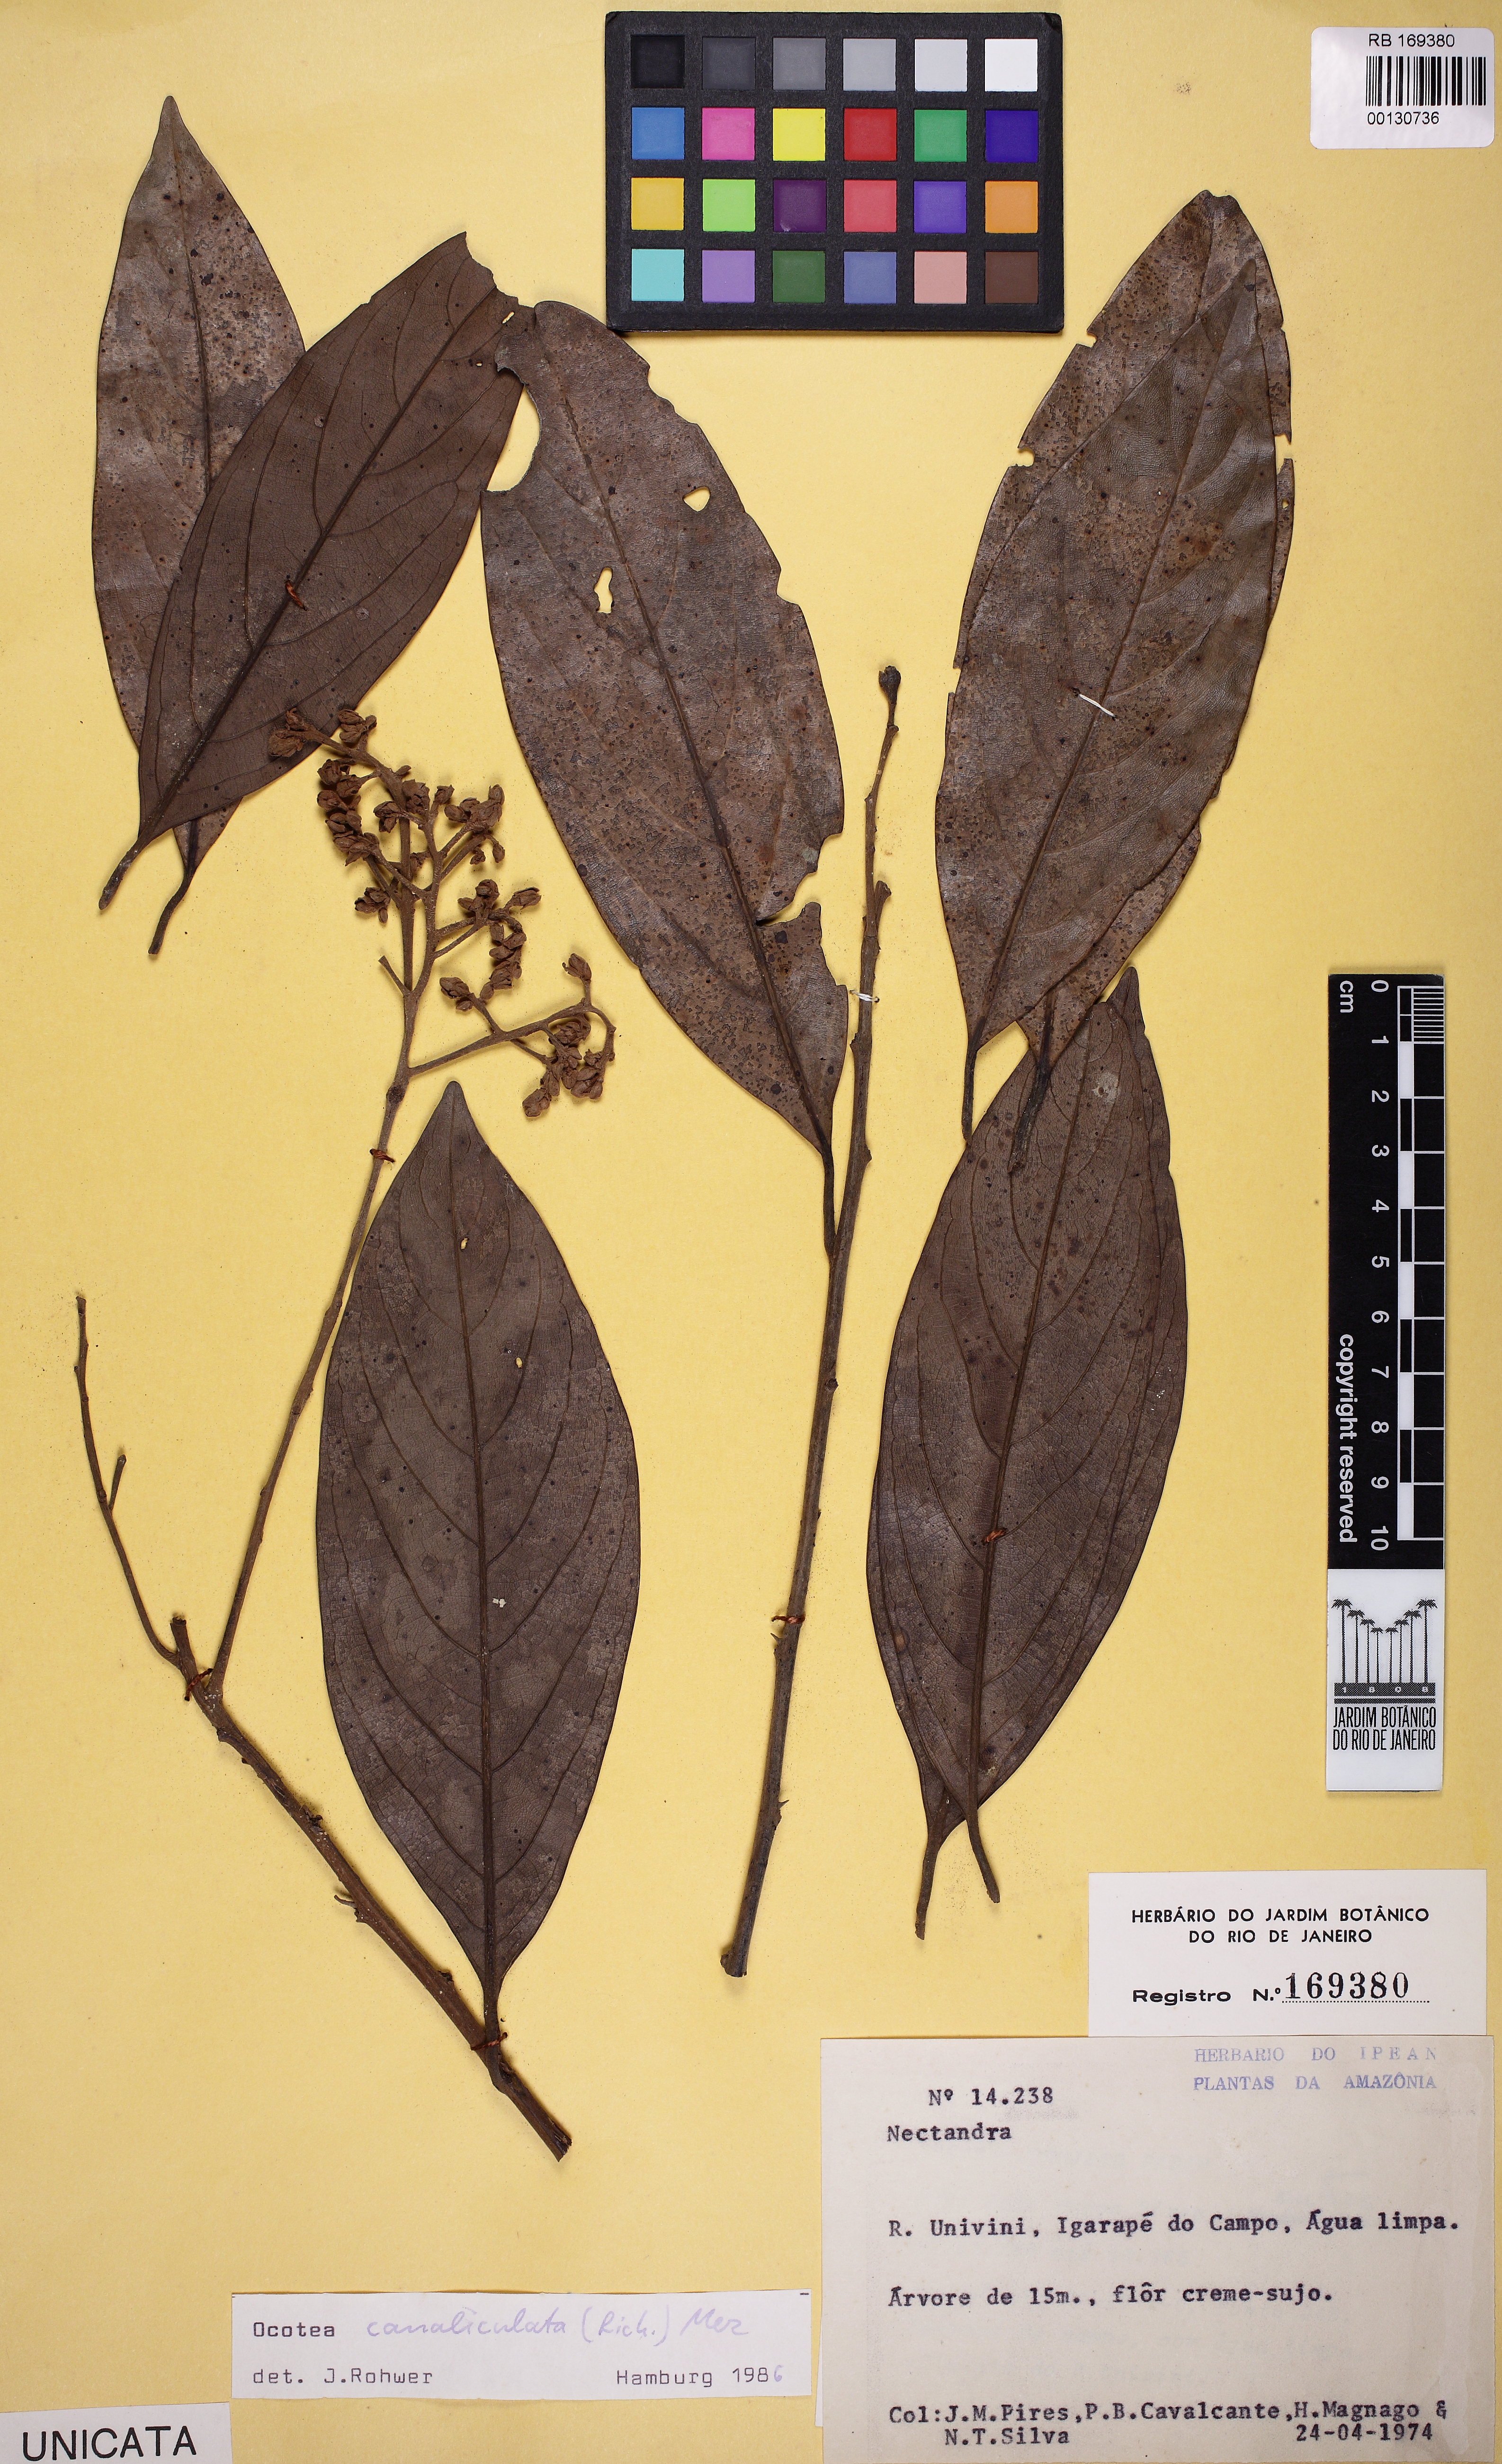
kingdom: Plantae
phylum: Tracheophyta
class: Magnoliopsida
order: Laurales
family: Lauraceae
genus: Ocotea
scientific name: Ocotea canaliculata
